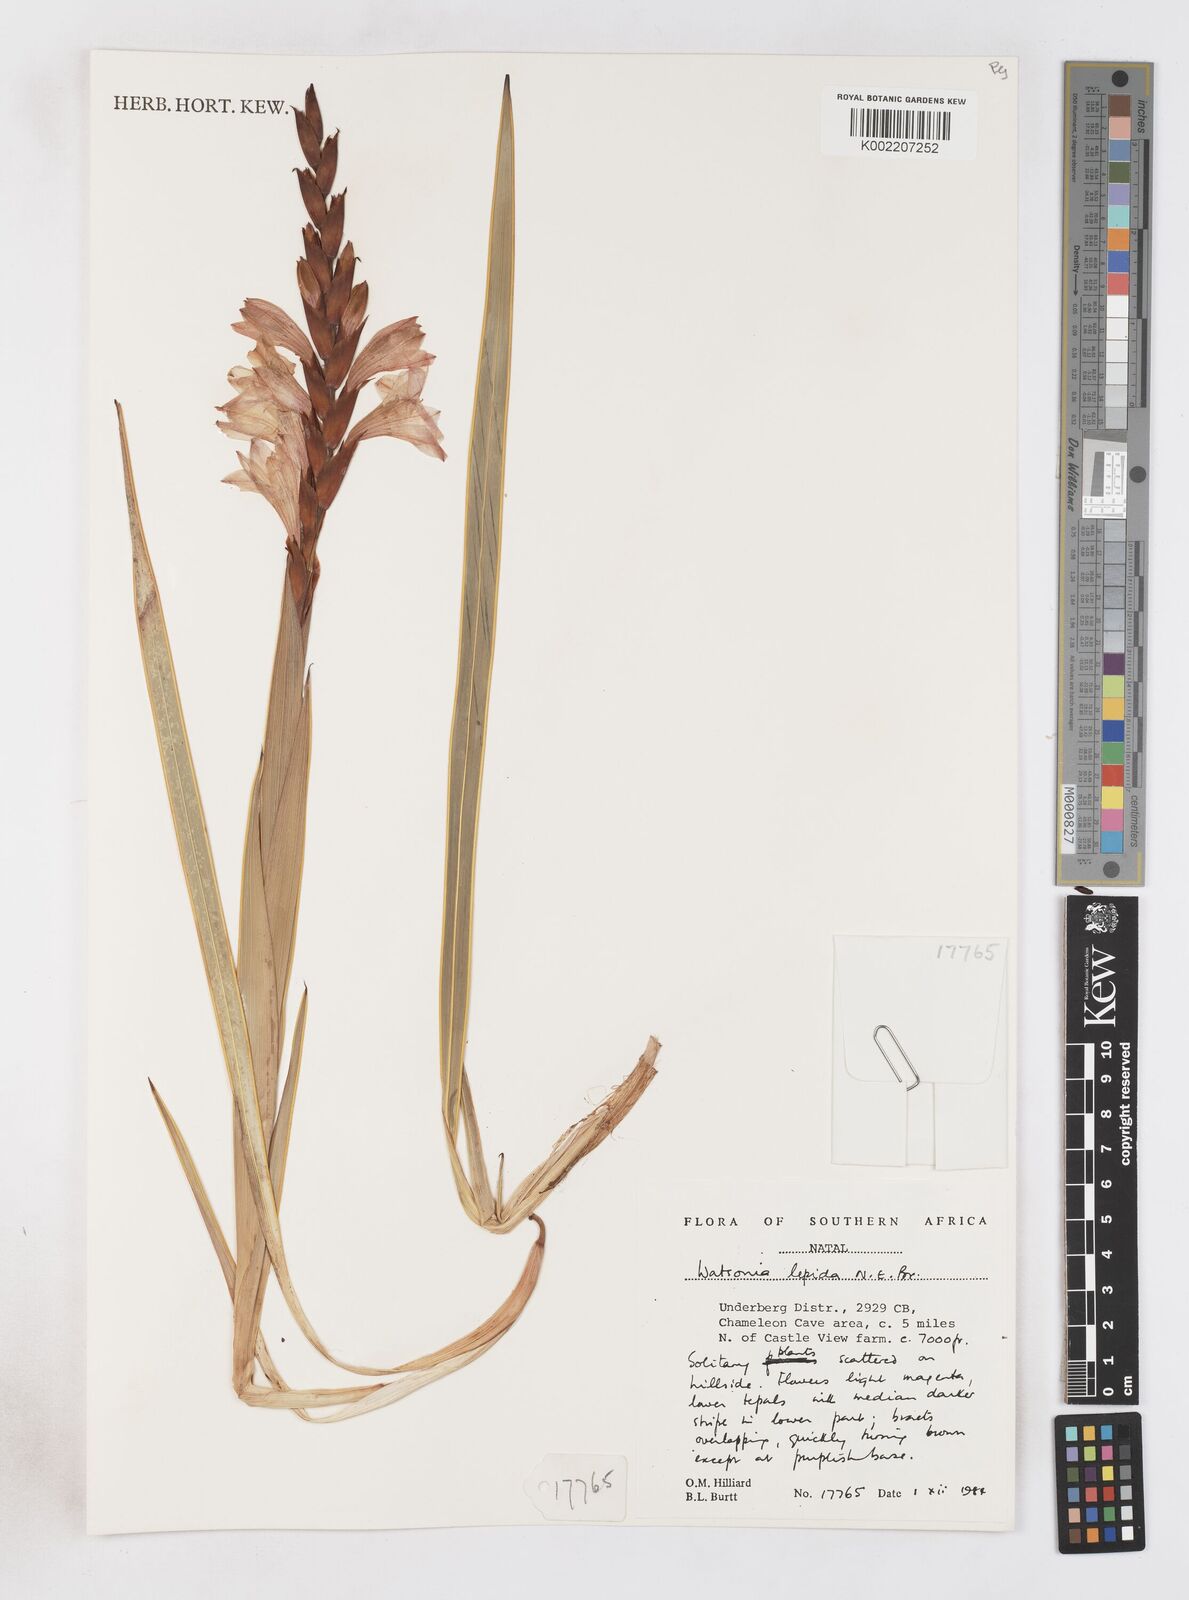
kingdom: Plantae
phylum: Tracheophyta
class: Liliopsida
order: Asparagales
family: Iridaceae
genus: Watsonia
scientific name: Watsonia lepida
